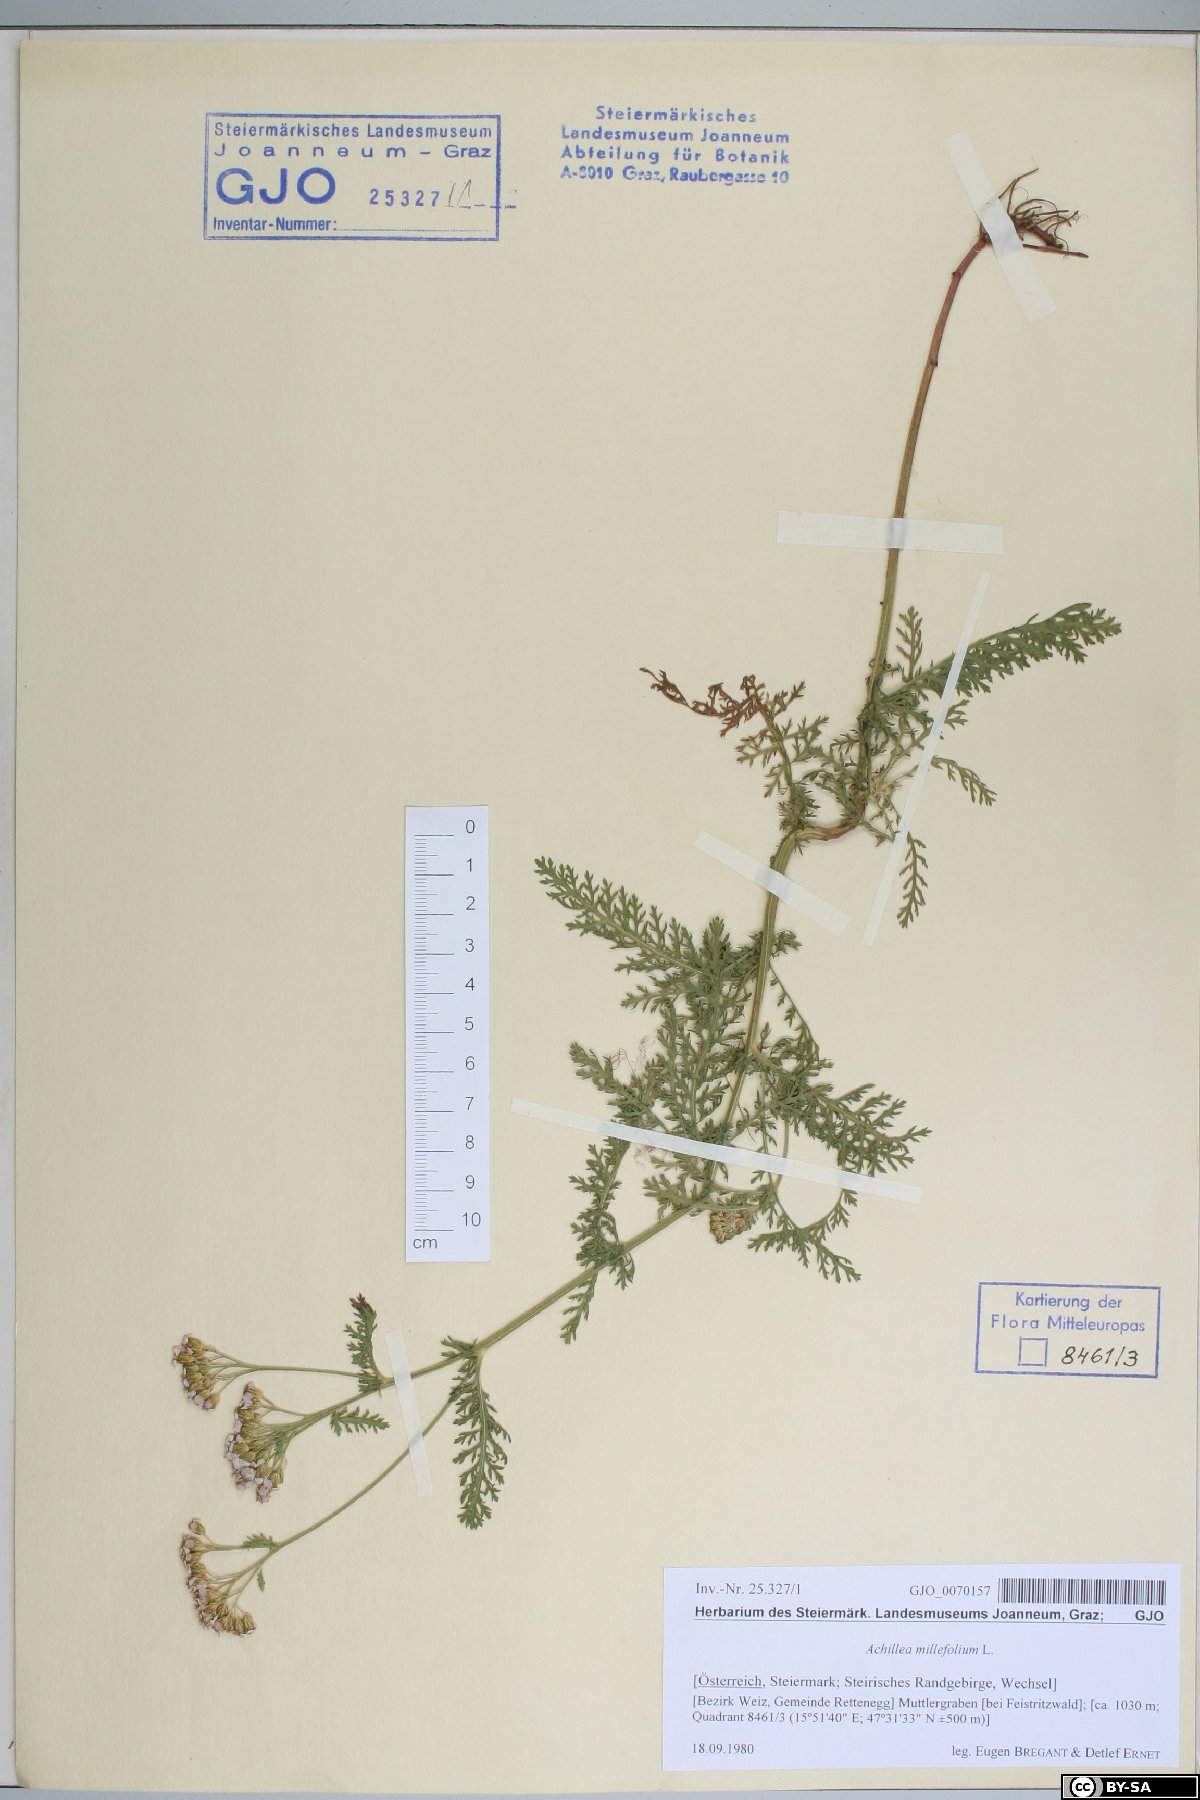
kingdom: Plantae
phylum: Tracheophyta
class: Magnoliopsida
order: Asterales
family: Asteraceae
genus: Achillea
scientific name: Achillea millefolium
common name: Yarrow
